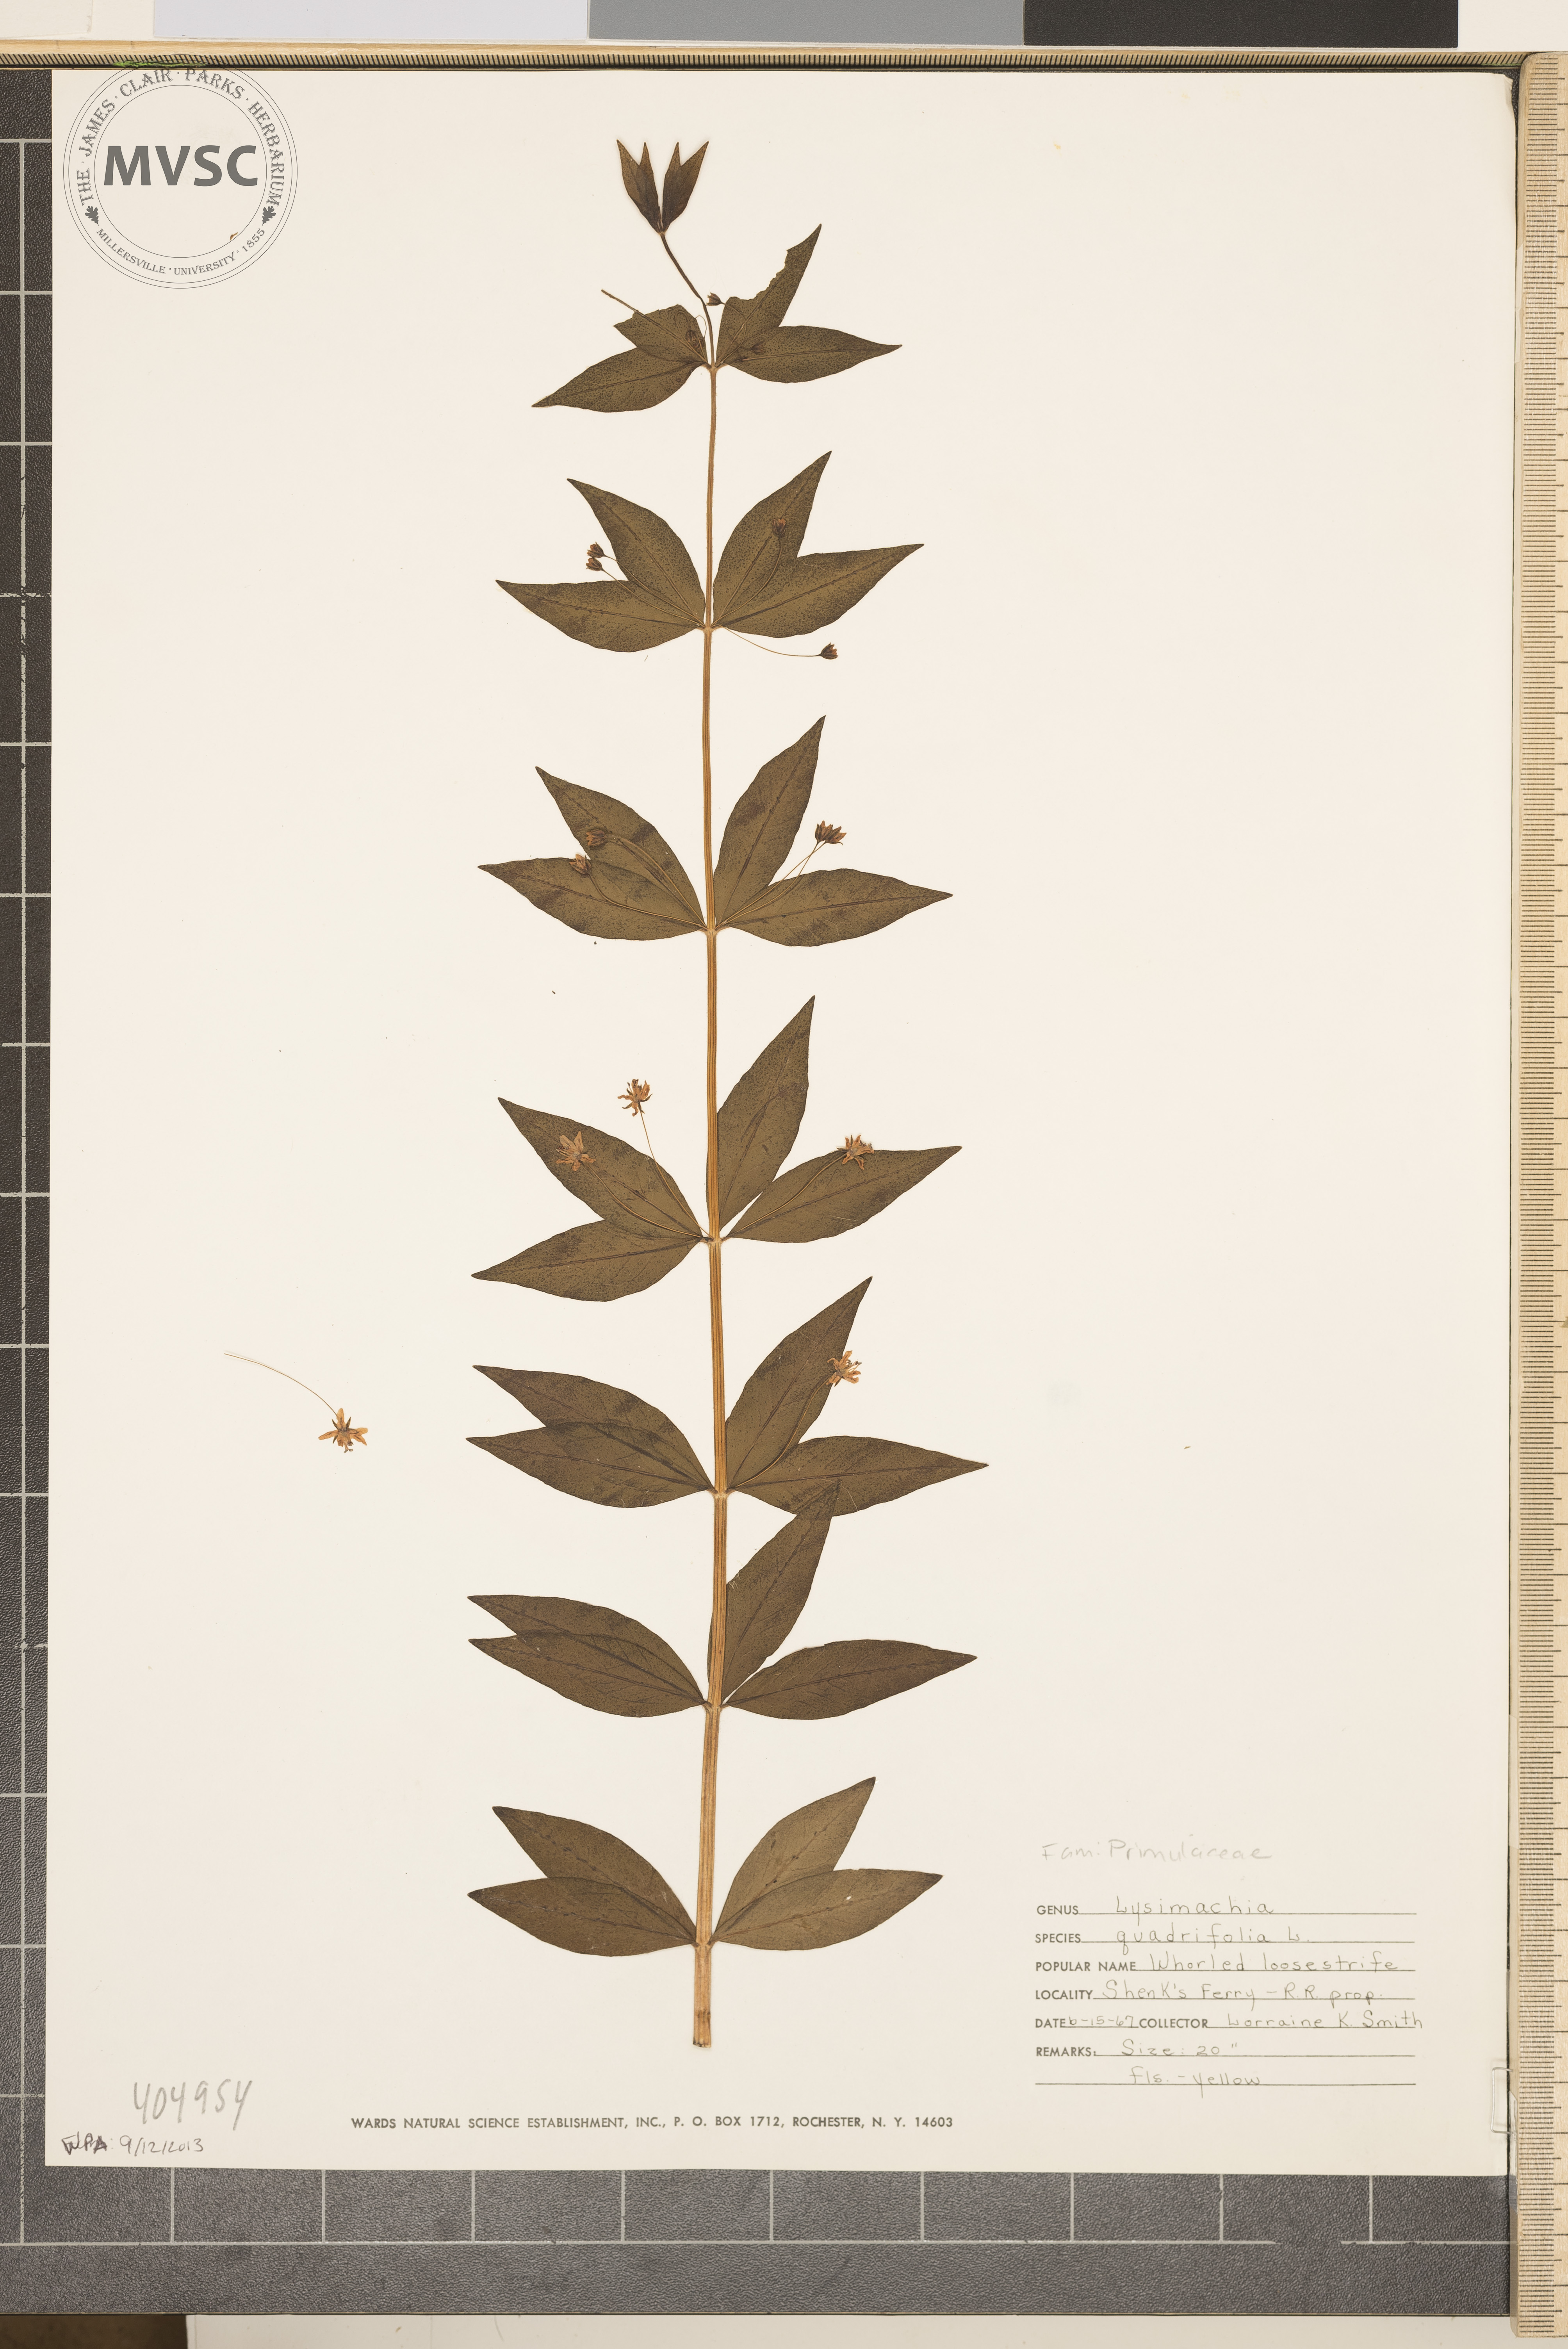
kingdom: Plantae
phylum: Tracheophyta
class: Magnoliopsida
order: Ericales
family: Primulaceae
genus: Lysimachia
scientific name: Lysimachia quadrifolia
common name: Whorled loosestrife
